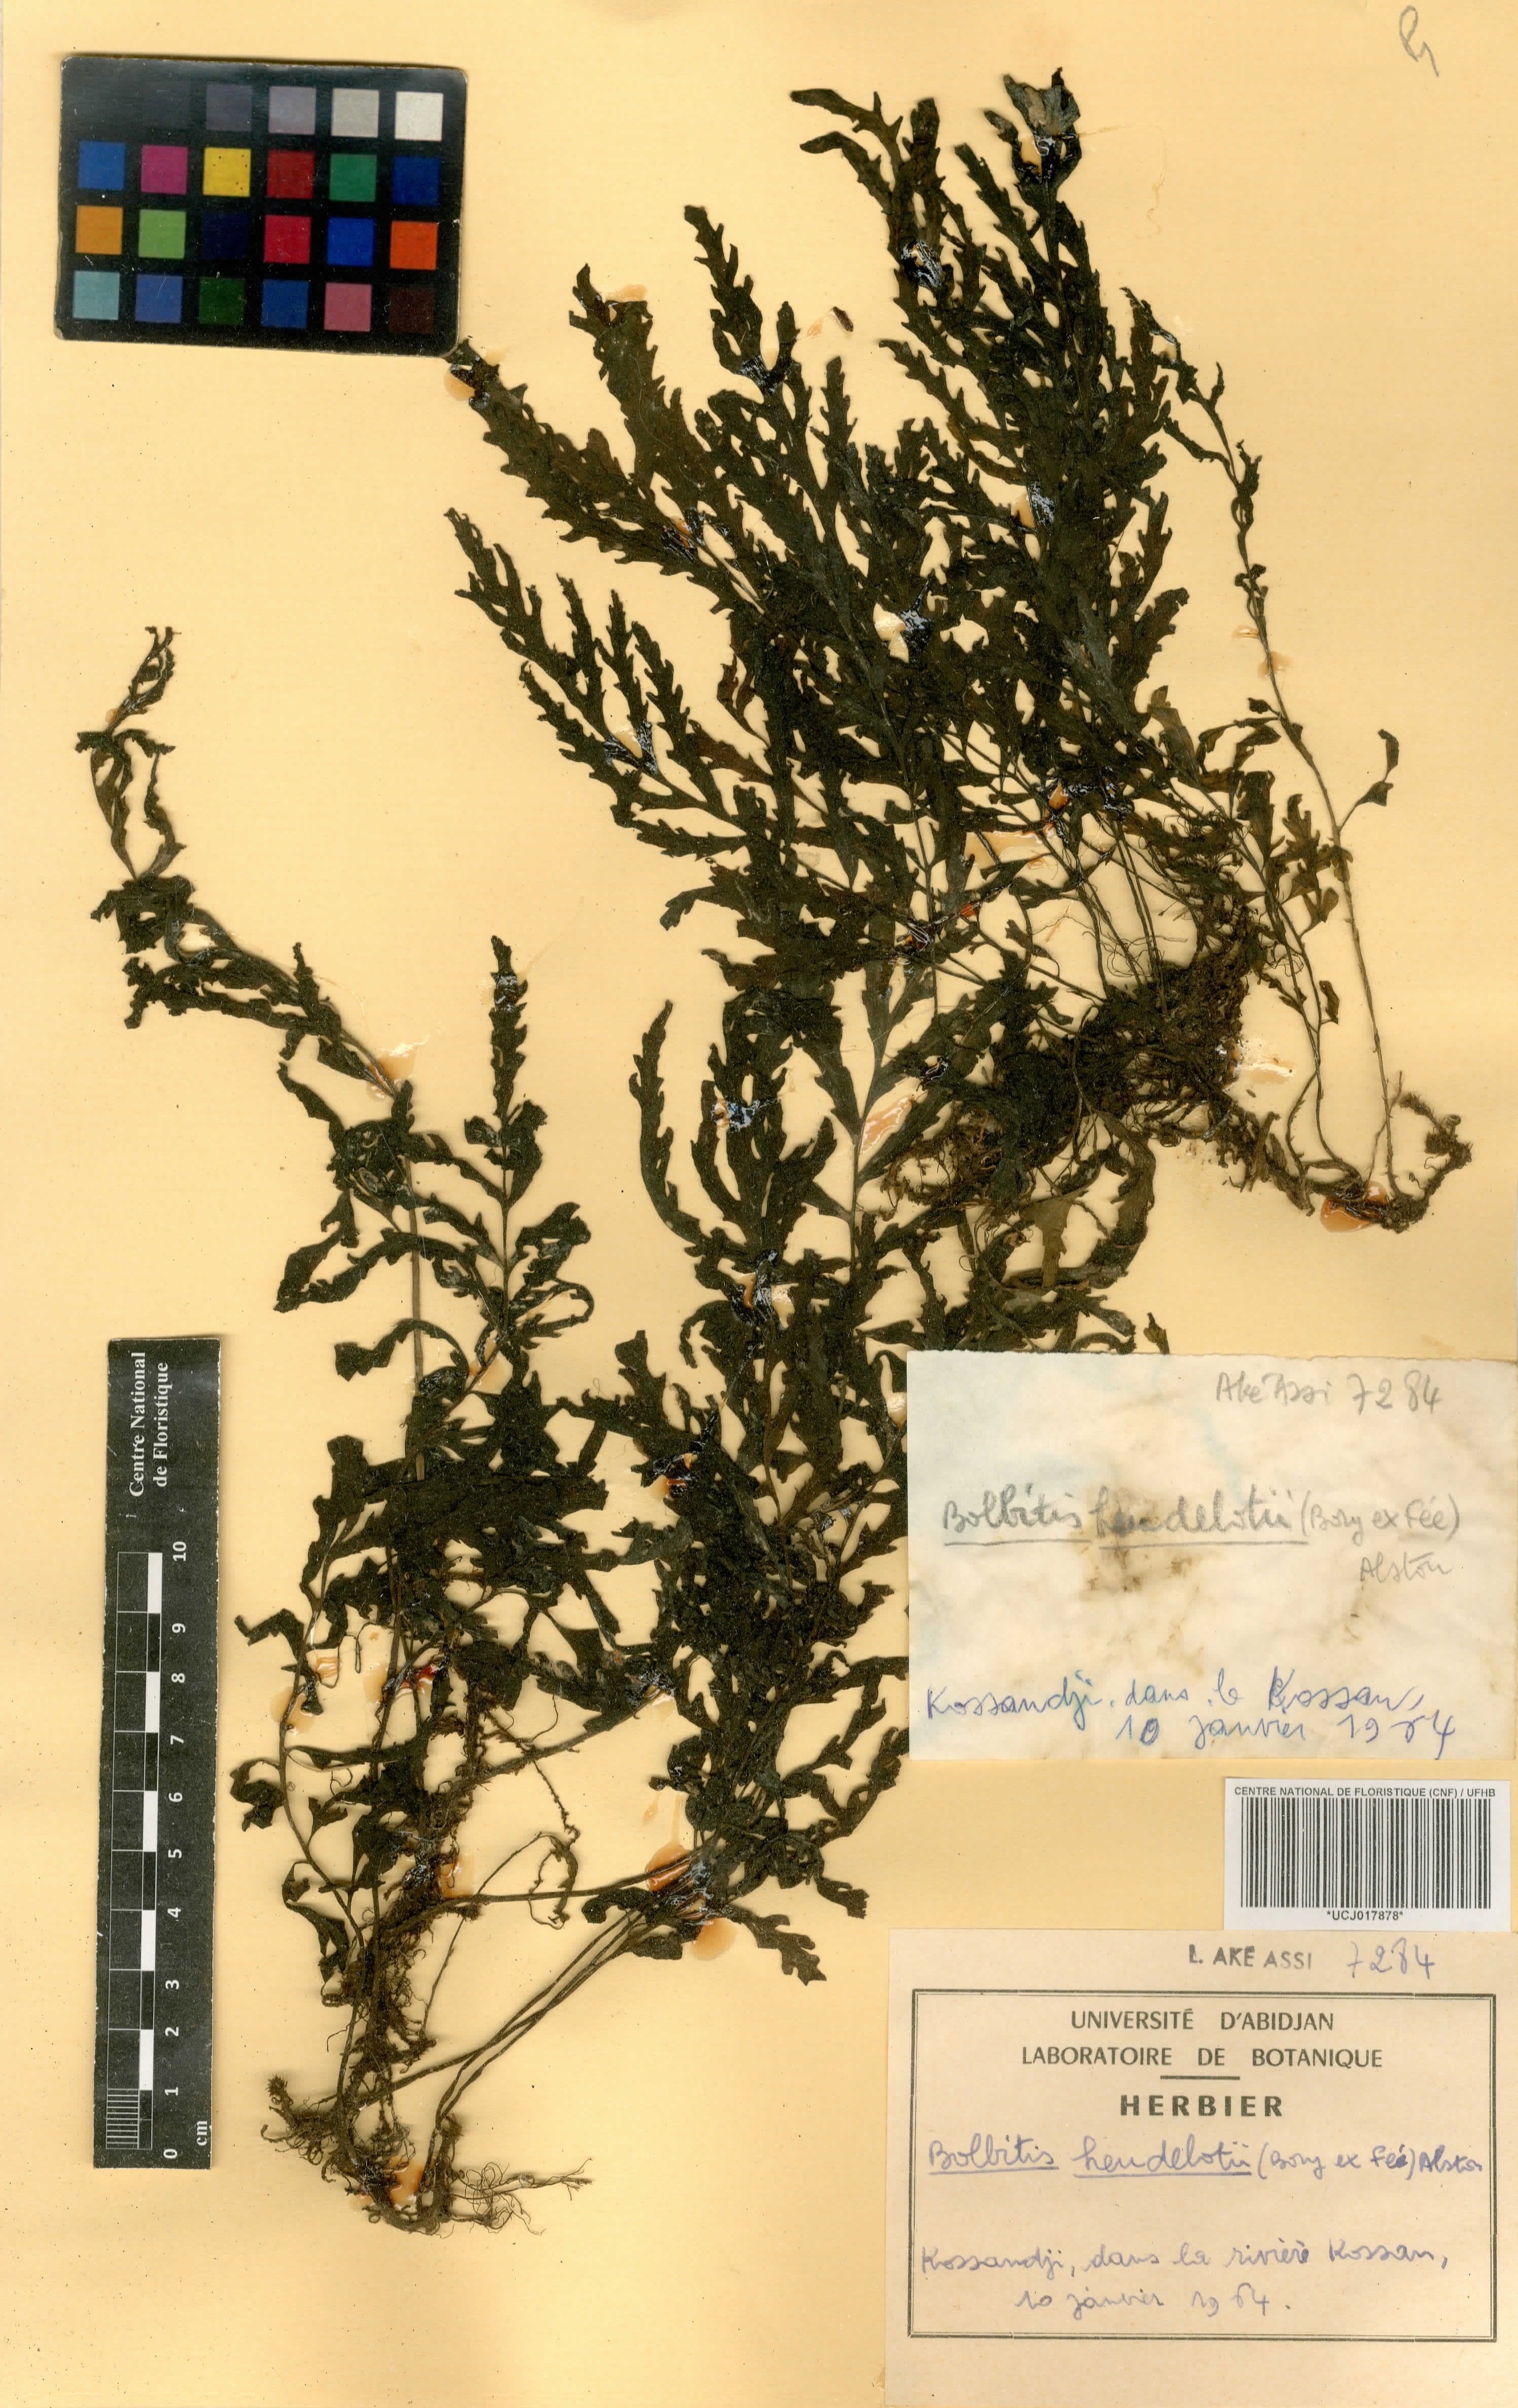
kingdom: Plantae
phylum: Tracheophyta
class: Polypodiopsida
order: Polypodiales
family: Dryopteridaceae
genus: Bolbitis
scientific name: Bolbitis heudelotii
